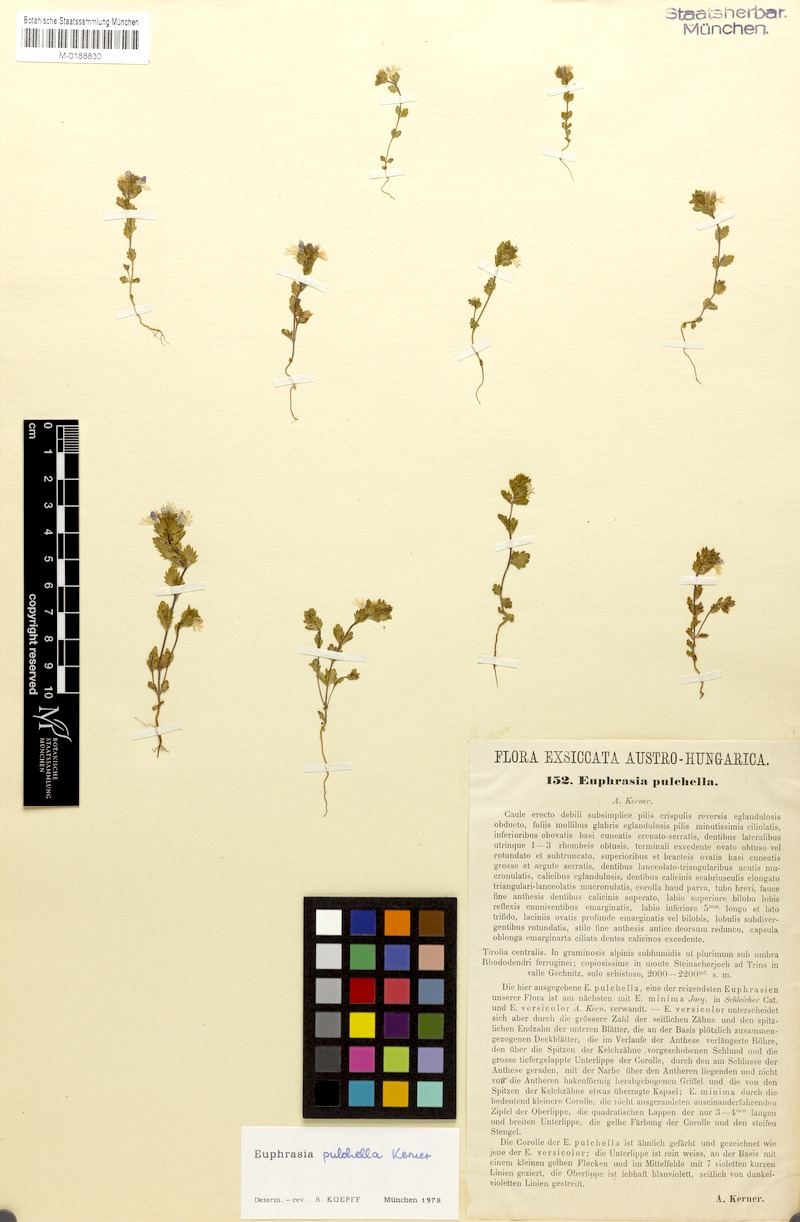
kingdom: Plantae
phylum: Tracheophyta
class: Magnoliopsida
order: Lamiales
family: Orobanchaceae
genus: Euphrasia
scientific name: Euphrasia pulchella
